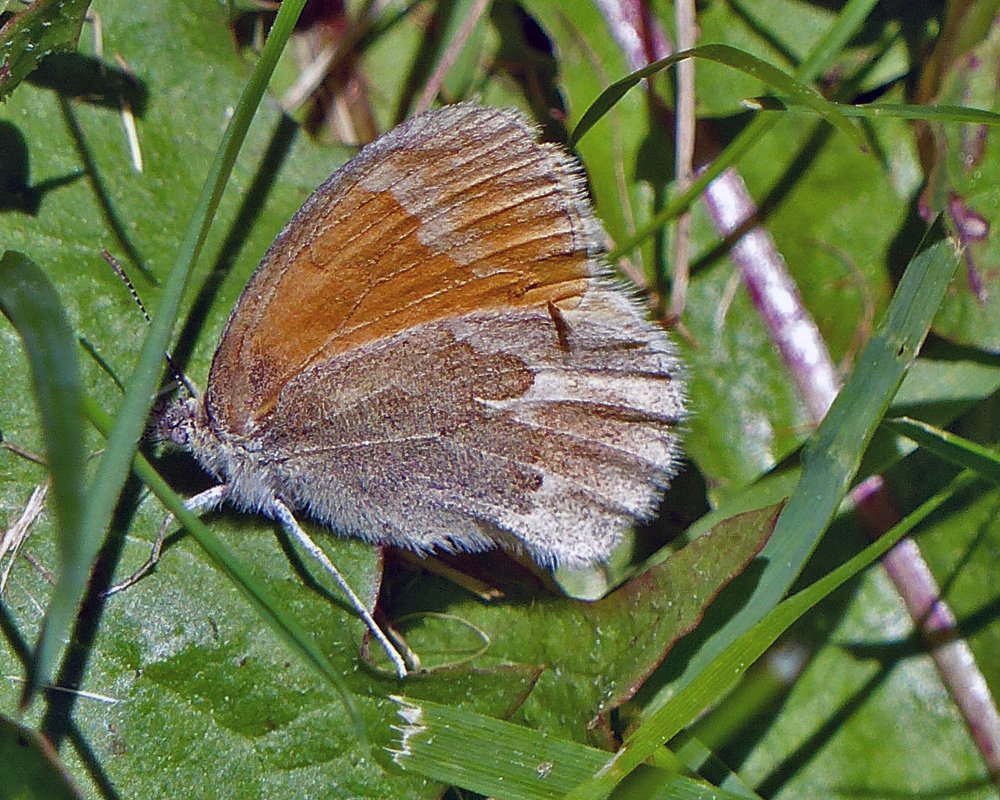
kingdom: Animalia
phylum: Arthropoda
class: Insecta
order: Lepidoptera
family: Nymphalidae
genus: Coenonympha
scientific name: Coenonympha tullia
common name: Large Heath
